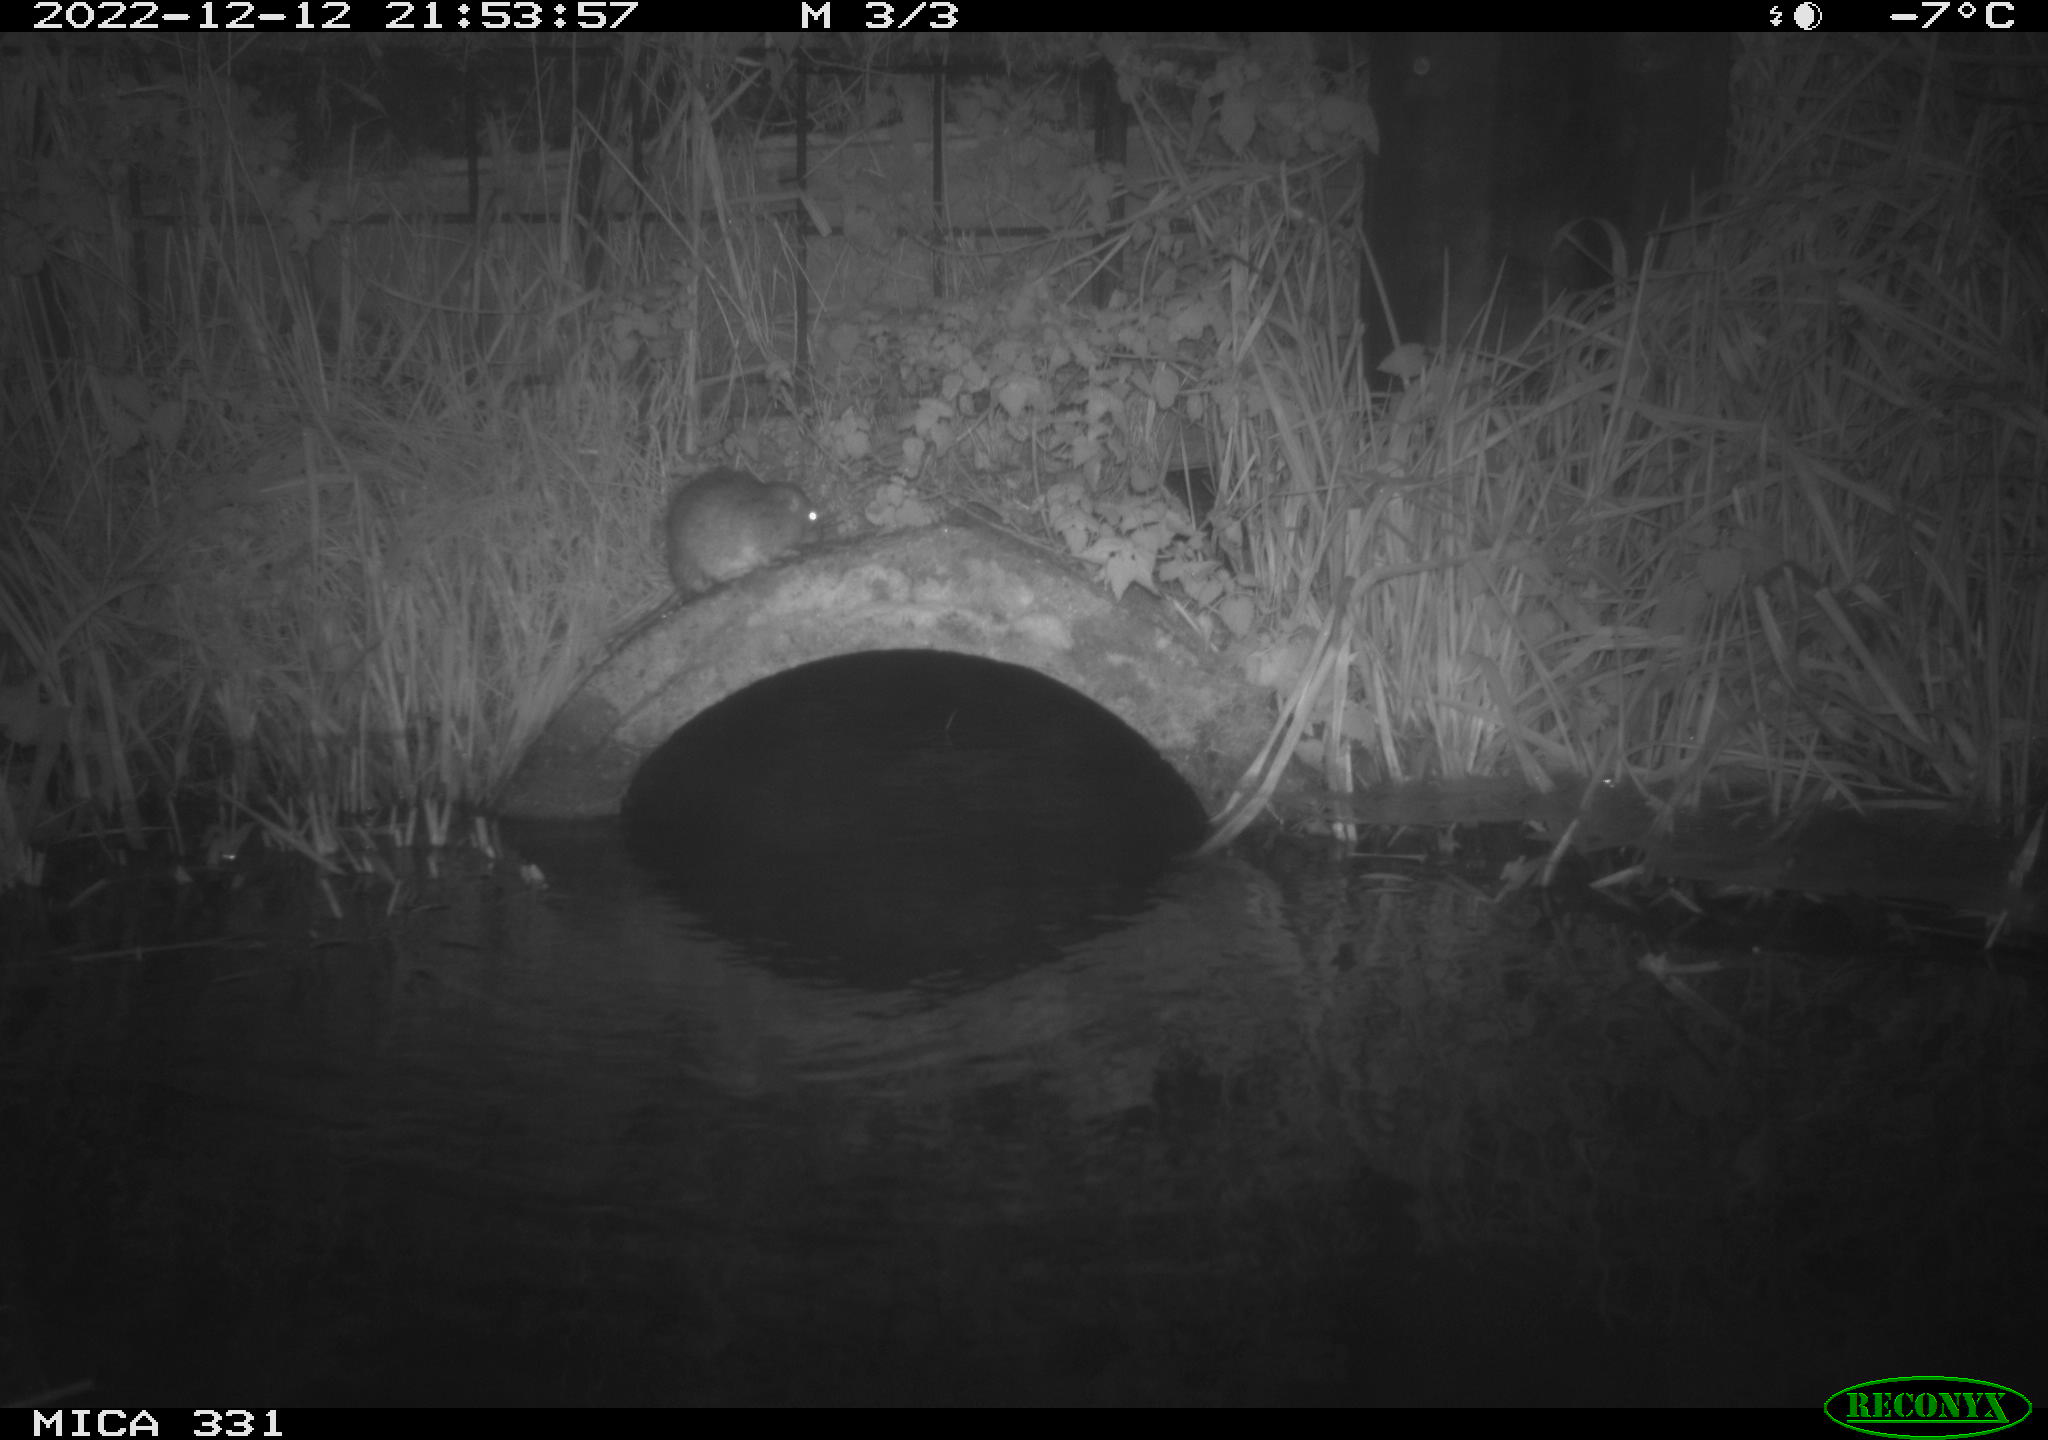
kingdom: Animalia
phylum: Chordata
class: Mammalia
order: Rodentia
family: Muridae
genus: Rattus
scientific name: Rattus norvegicus
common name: Brown rat
